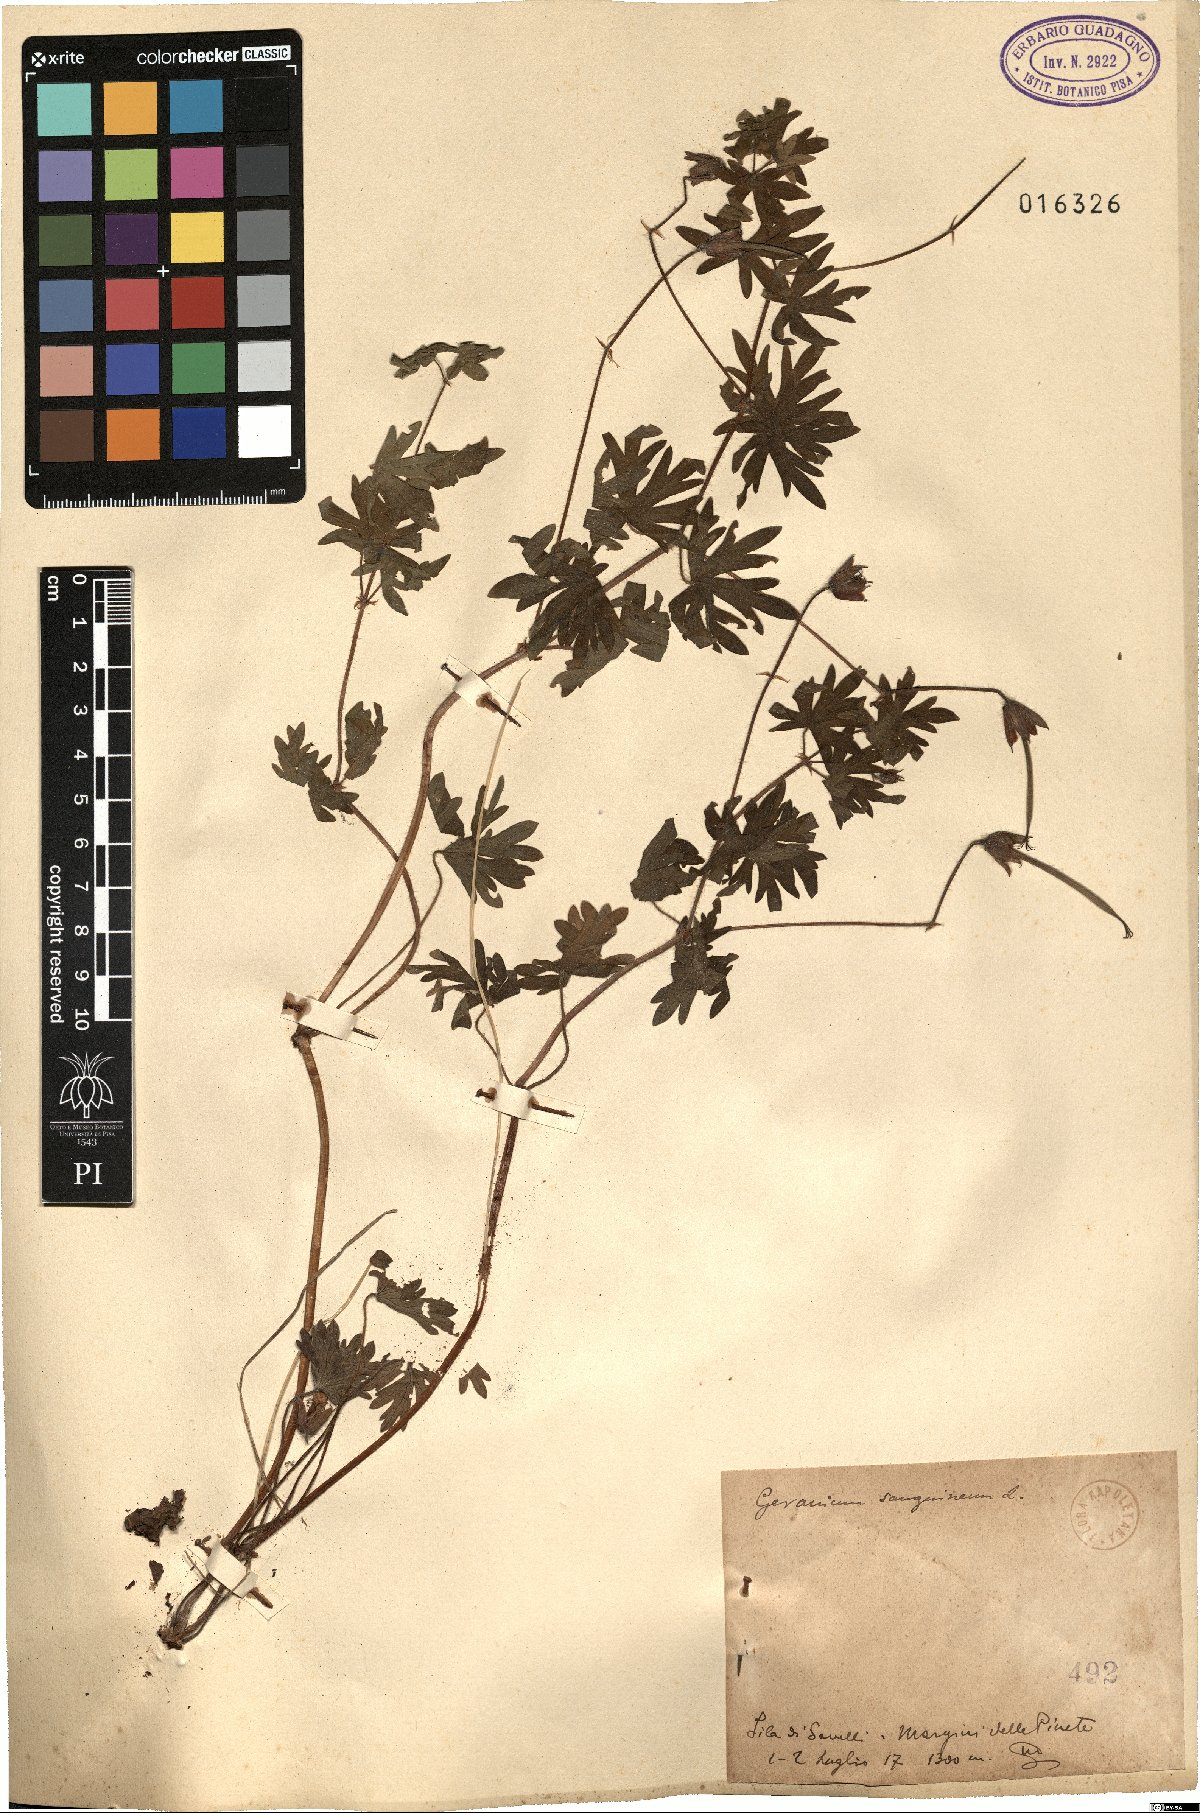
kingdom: Plantae
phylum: Tracheophyta
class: Magnoliopsida
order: Geraniales
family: Geraniaceae
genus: Geranium
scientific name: Geranium sanguineum
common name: Bloody crane's-bill
